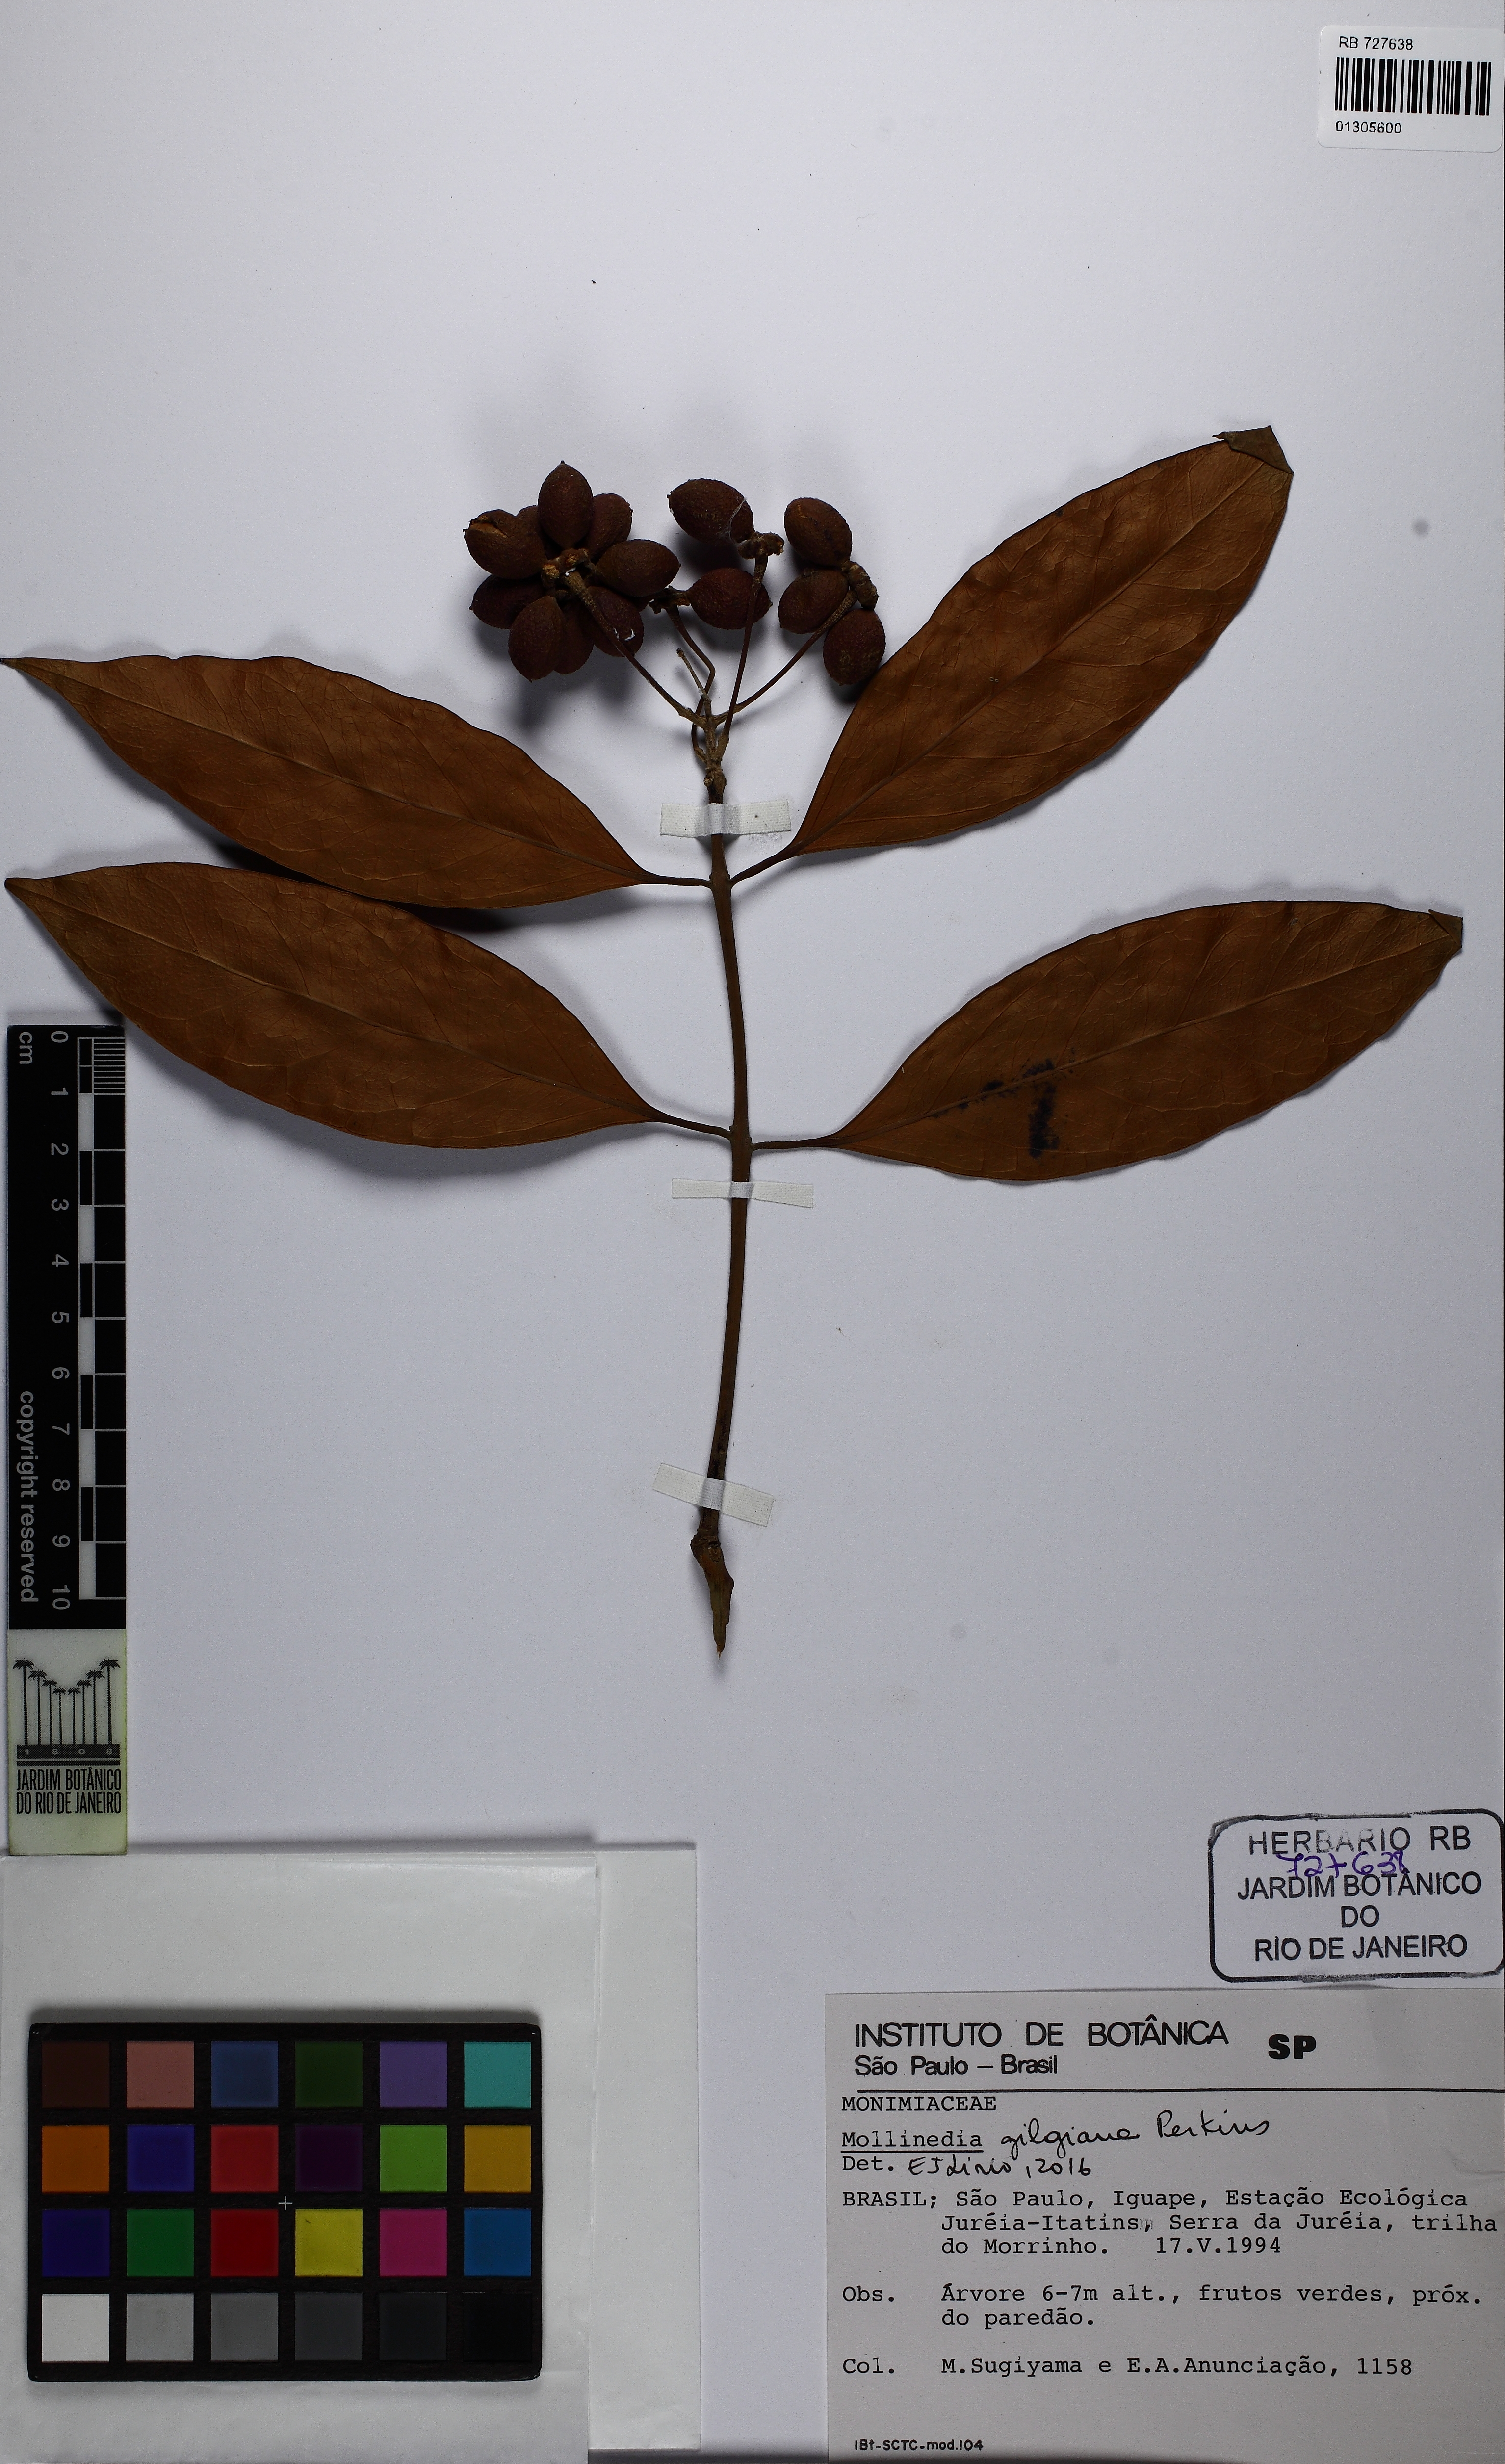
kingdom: Plantae
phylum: Tracheophyta
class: Magnoliopsida
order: Laurales
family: Monimiaceae
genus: Mollinedia
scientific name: Mollinedia boracensis
